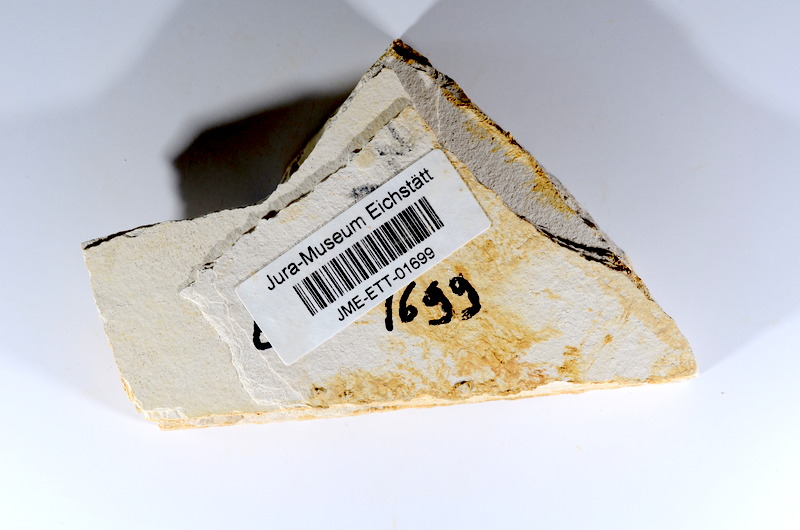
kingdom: Animalia
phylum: Chordata
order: Salmoniformes
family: Orthogonikleithridae
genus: Orthogonikleithrus
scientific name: Orthogonikleithrus hoelli
